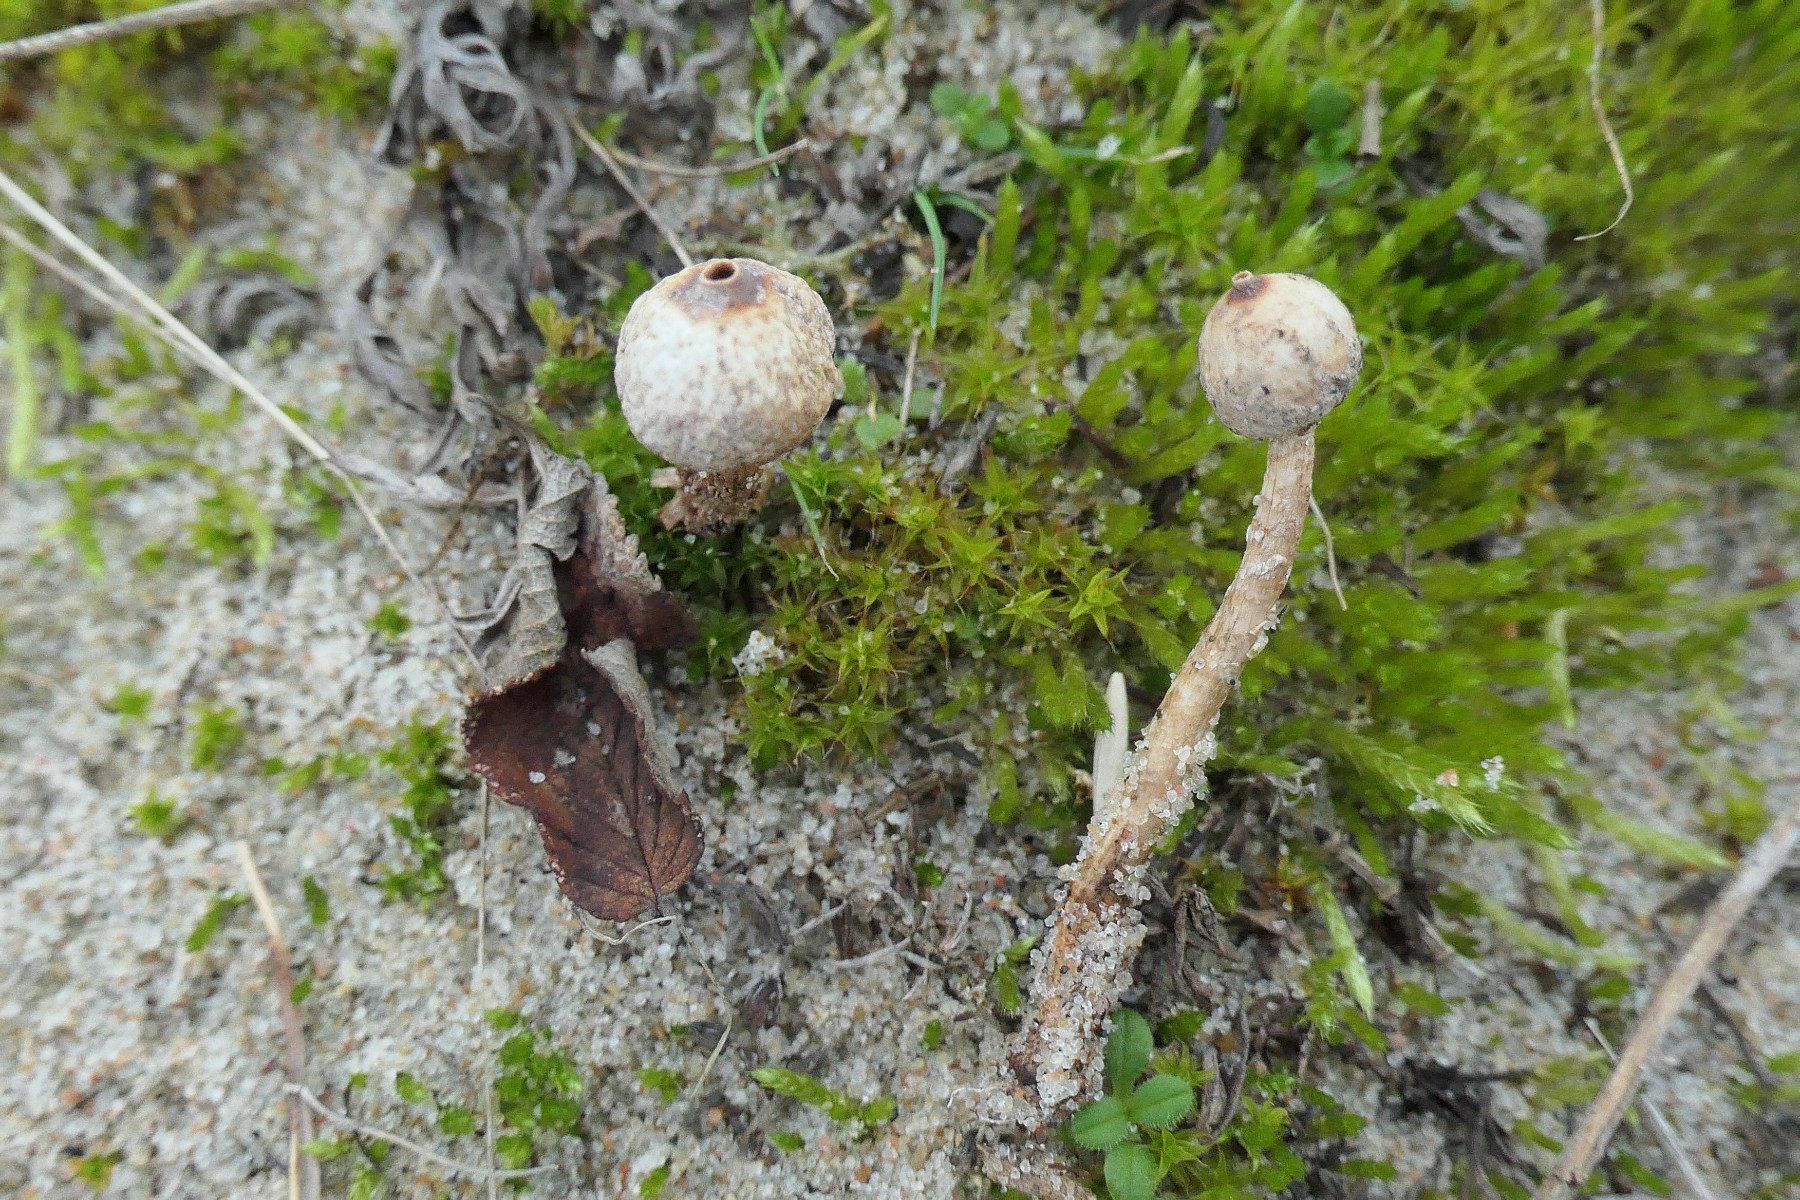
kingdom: Fungi
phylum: Basidiomycota
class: Agaricomycetes
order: Agaricales
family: Agaricaceae
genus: Tulostoma
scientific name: Tulostoma brumale
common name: vinter-stilkbovist
